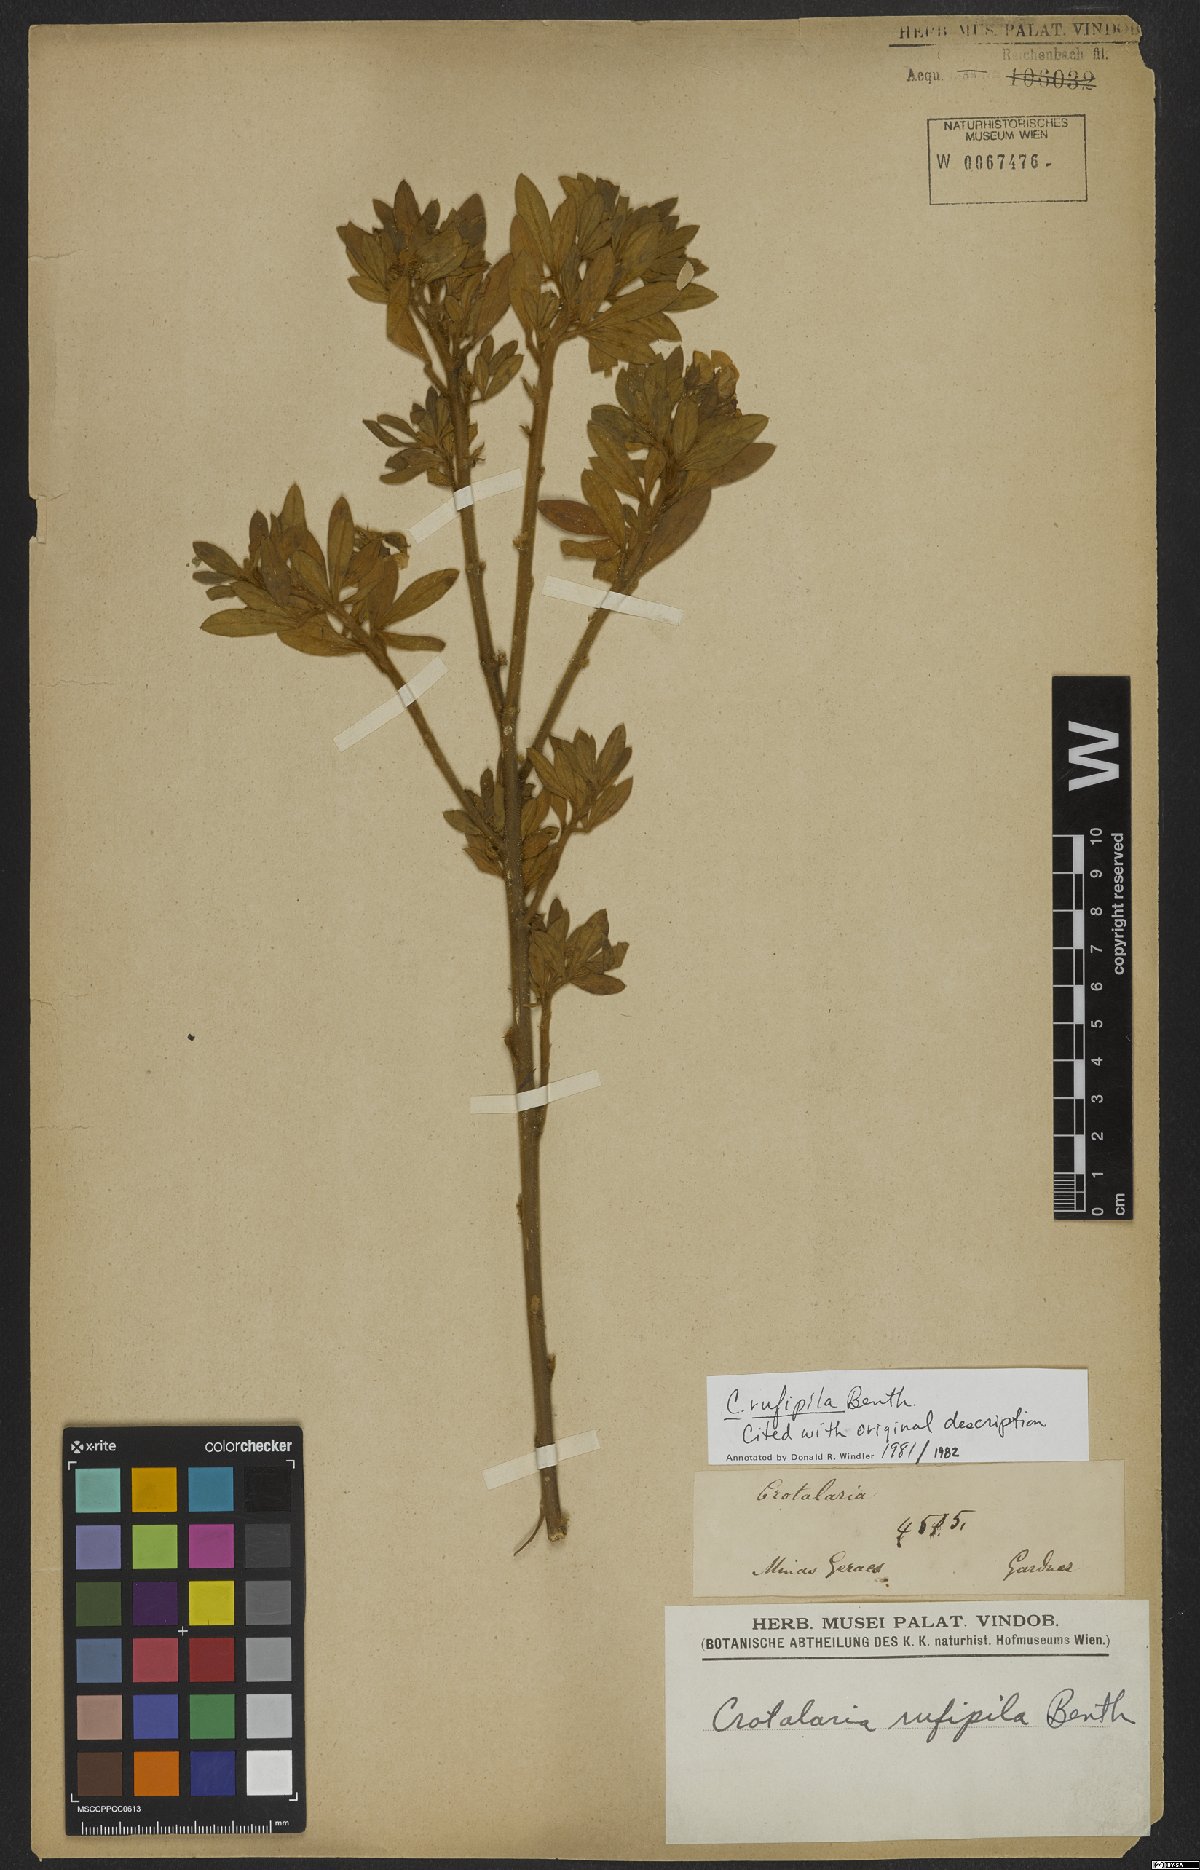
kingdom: Plantae
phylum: Tracheophyta
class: Magnoliopsida
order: Fabales
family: Fabaceae
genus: Crotalaria
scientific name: Crotalaria rufipila
